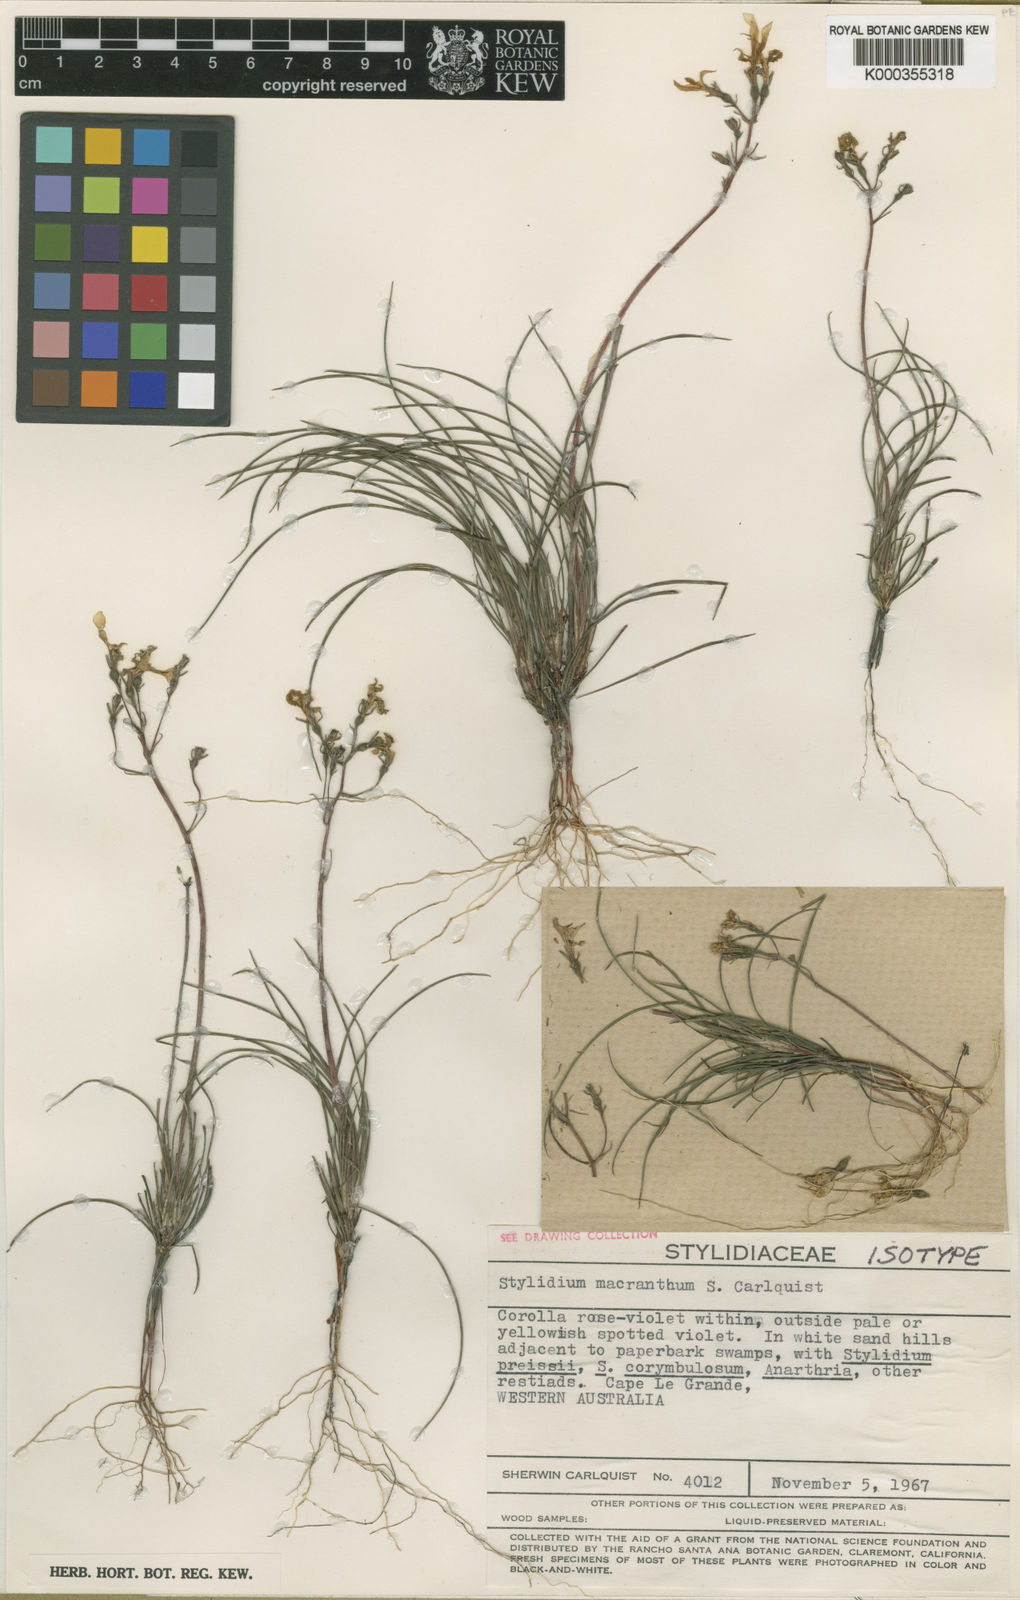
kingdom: Plantae
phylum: Tracheophyta
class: Magnoliopsida
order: Asterales
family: Stylidiaceae
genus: Stylidium
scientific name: Stylidium macranthum
